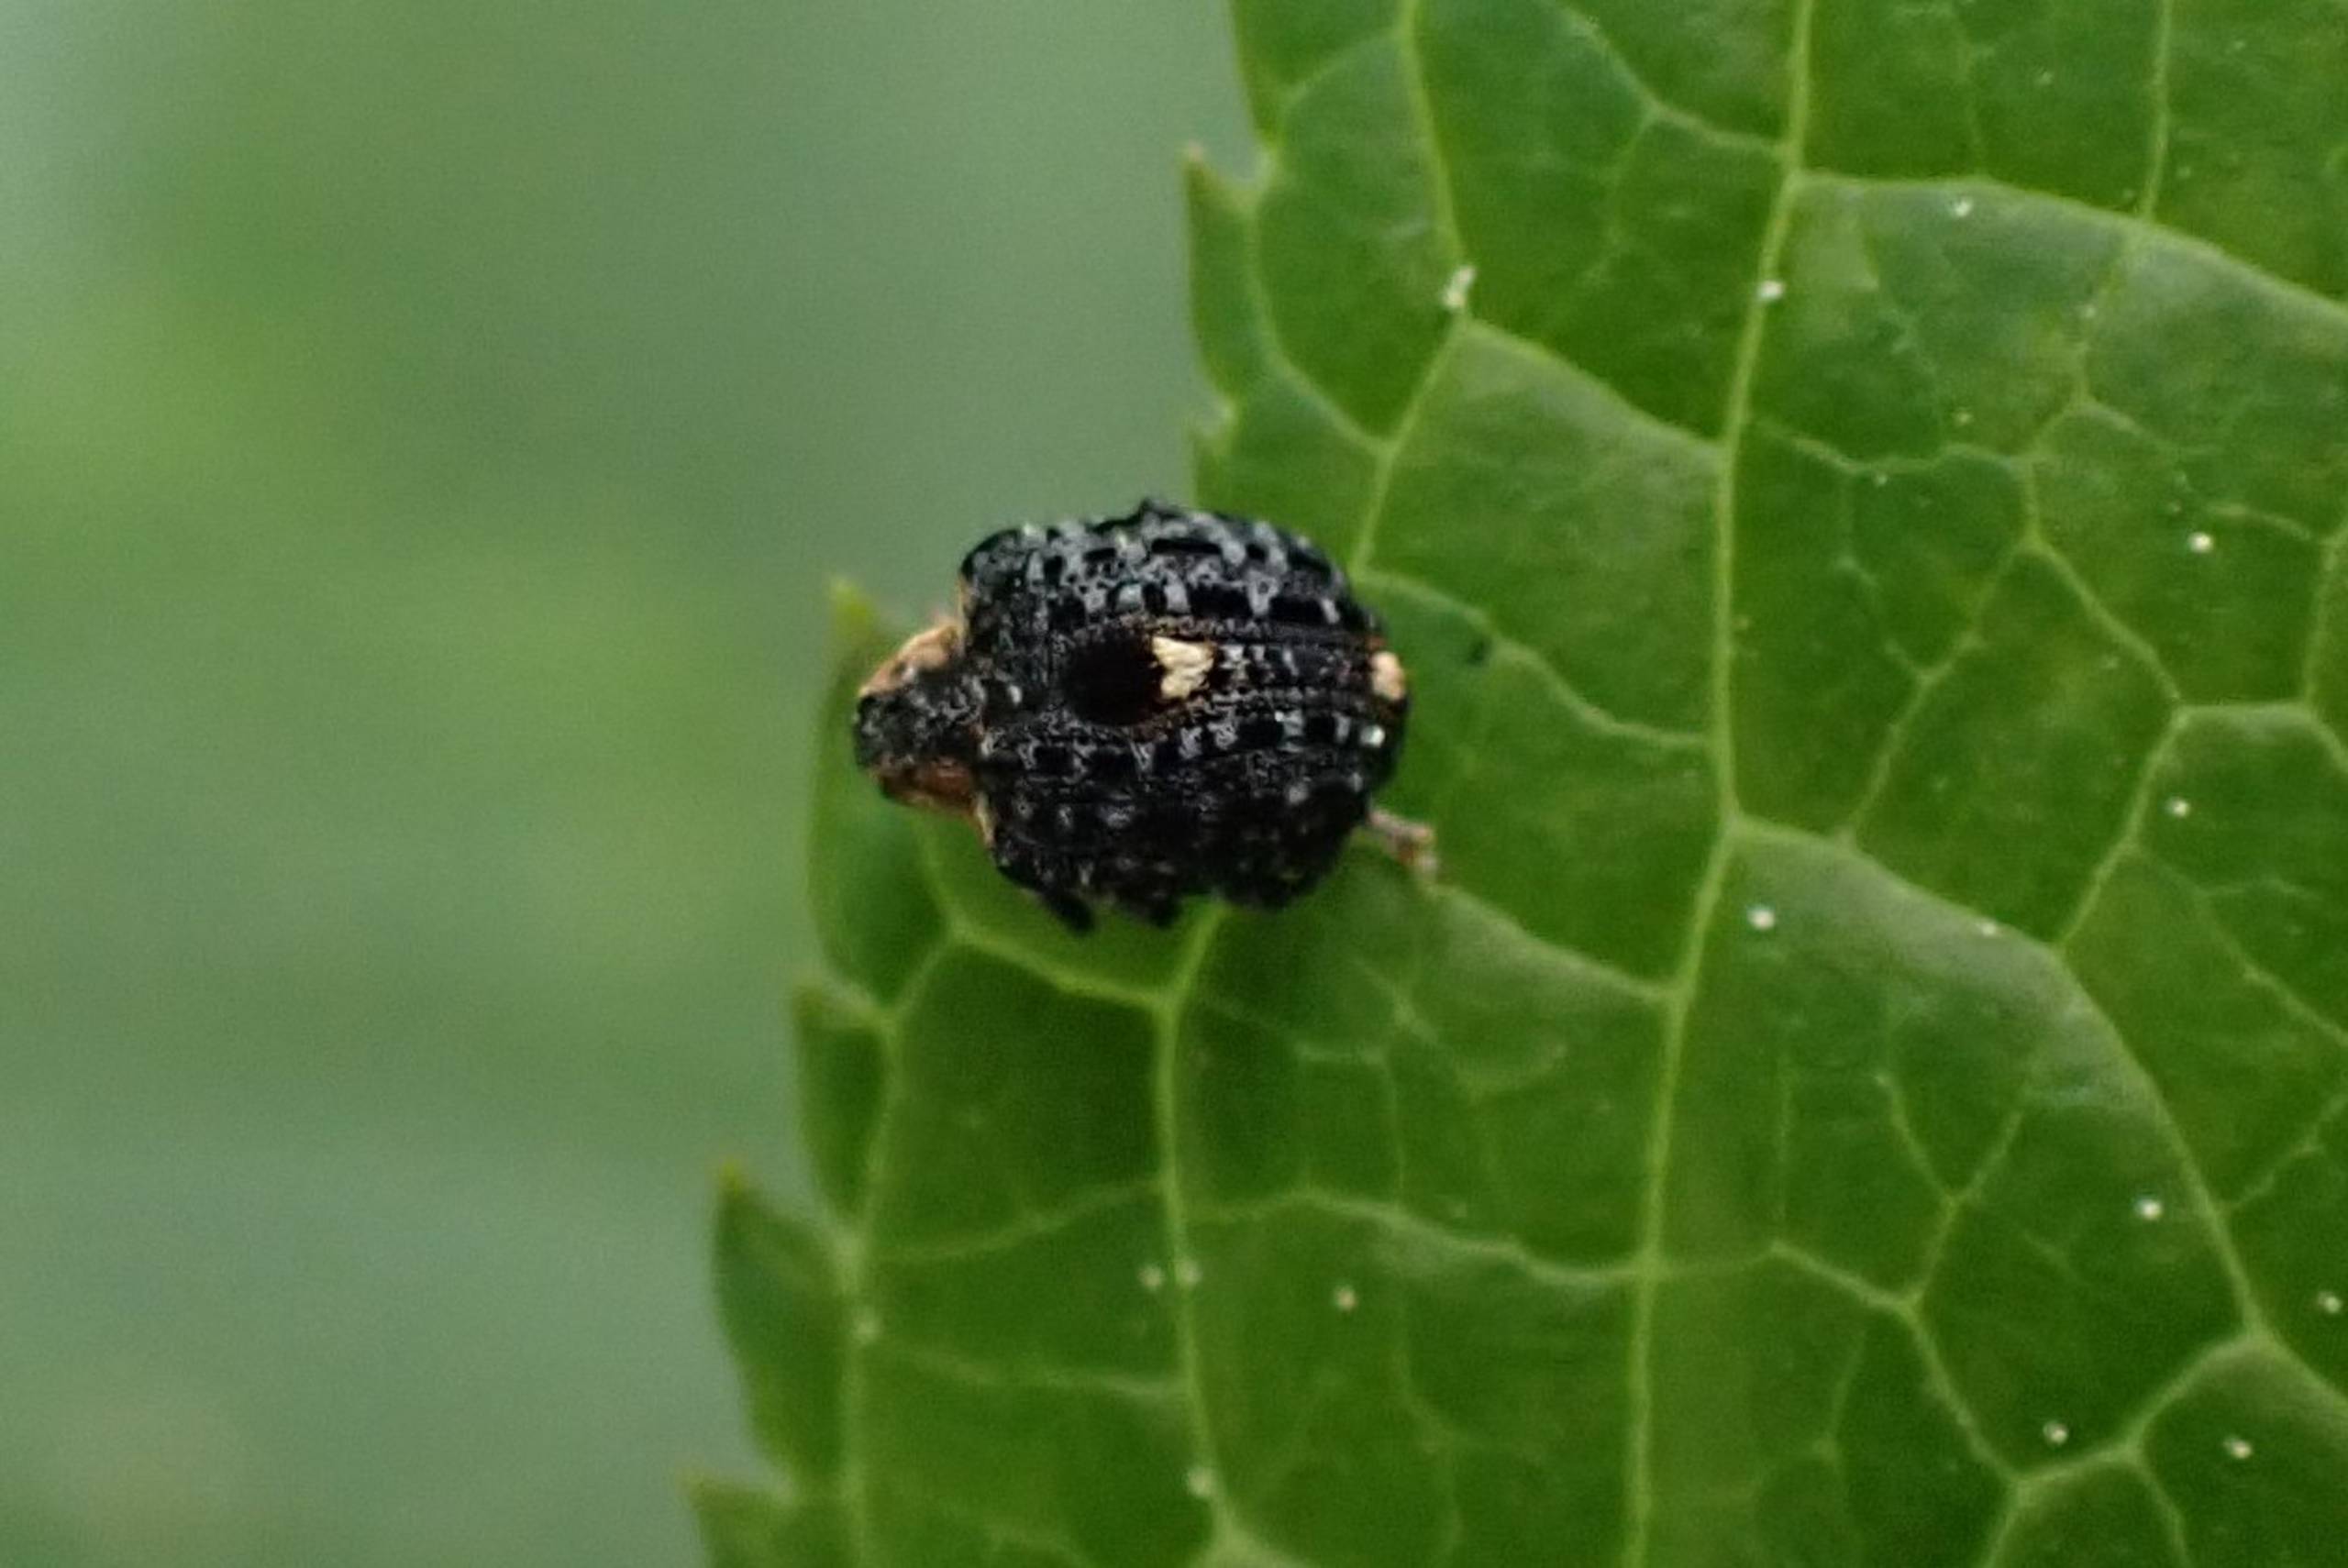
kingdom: Animalia
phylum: Arthropoda
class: Insecta
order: Coleoptera
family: Curculionidae
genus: Cionus
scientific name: Cionus tuberculosus
